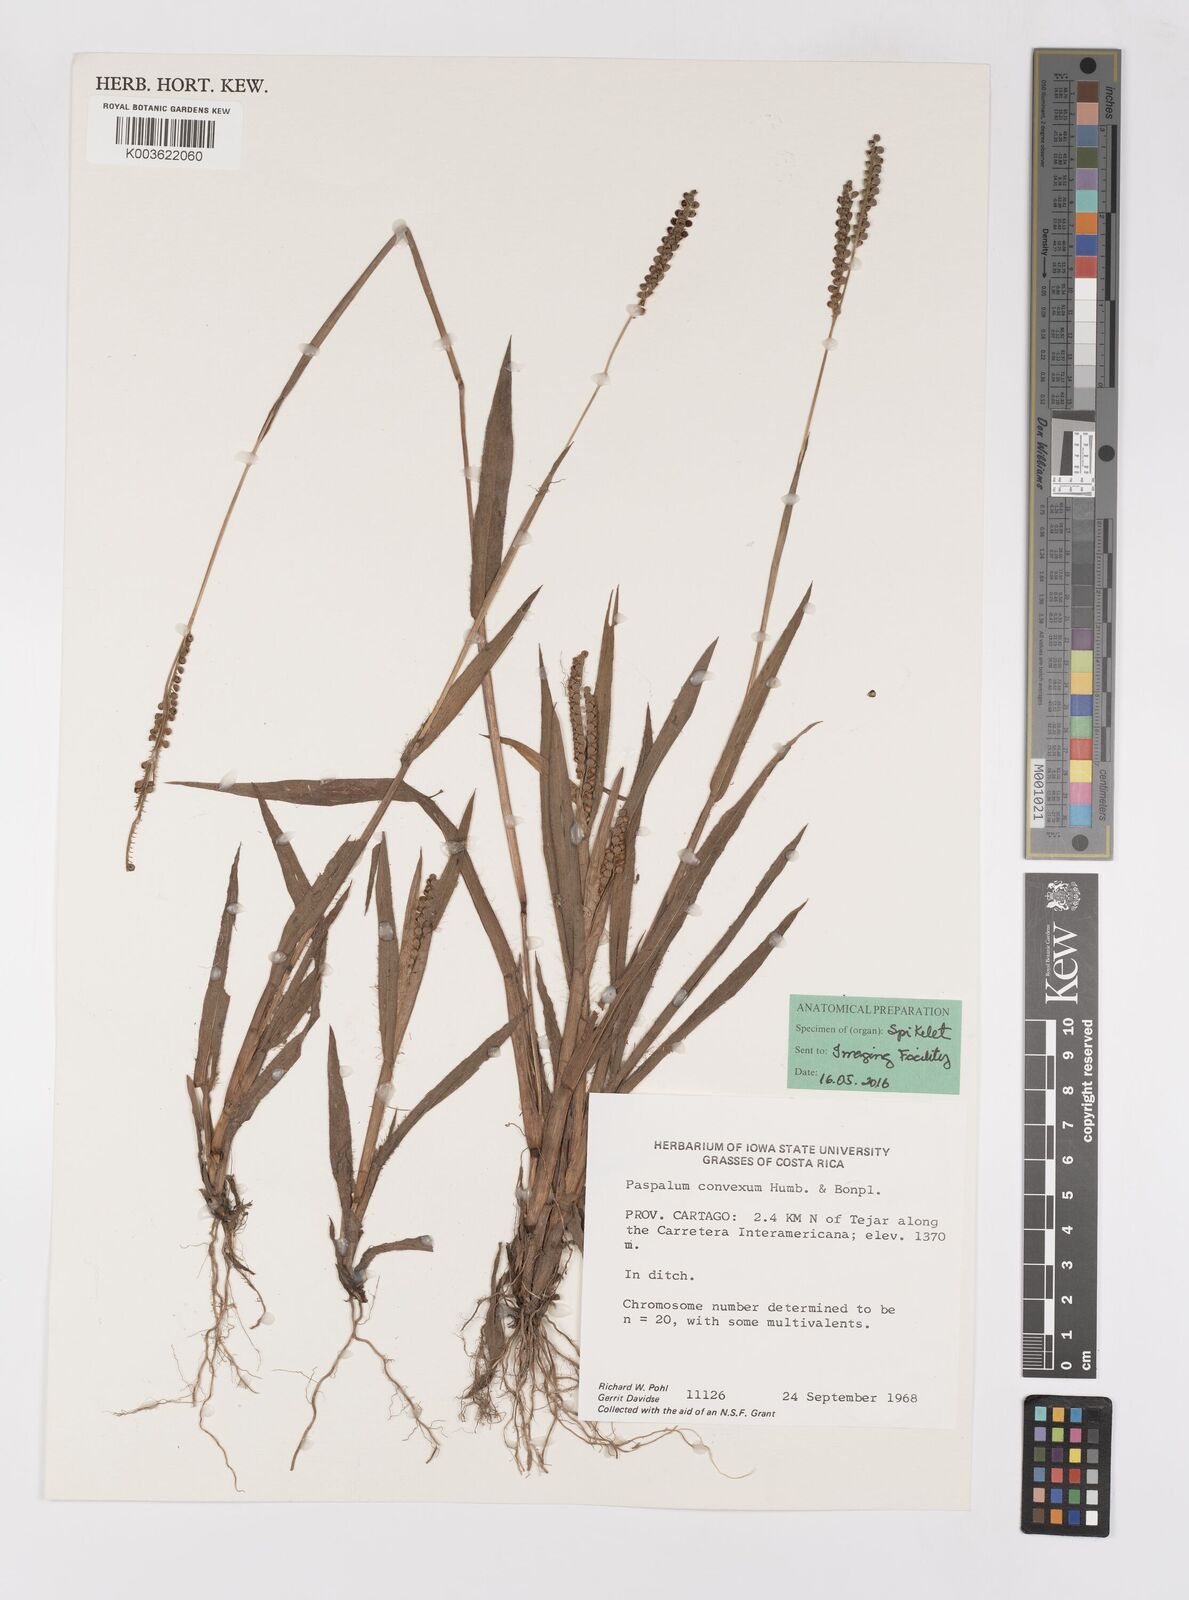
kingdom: Plantae
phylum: Tracheophyta
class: Liliopsida
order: Poales
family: Poaceae
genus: Paspalum
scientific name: Paspalum convexum
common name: Latin american crowngrass
